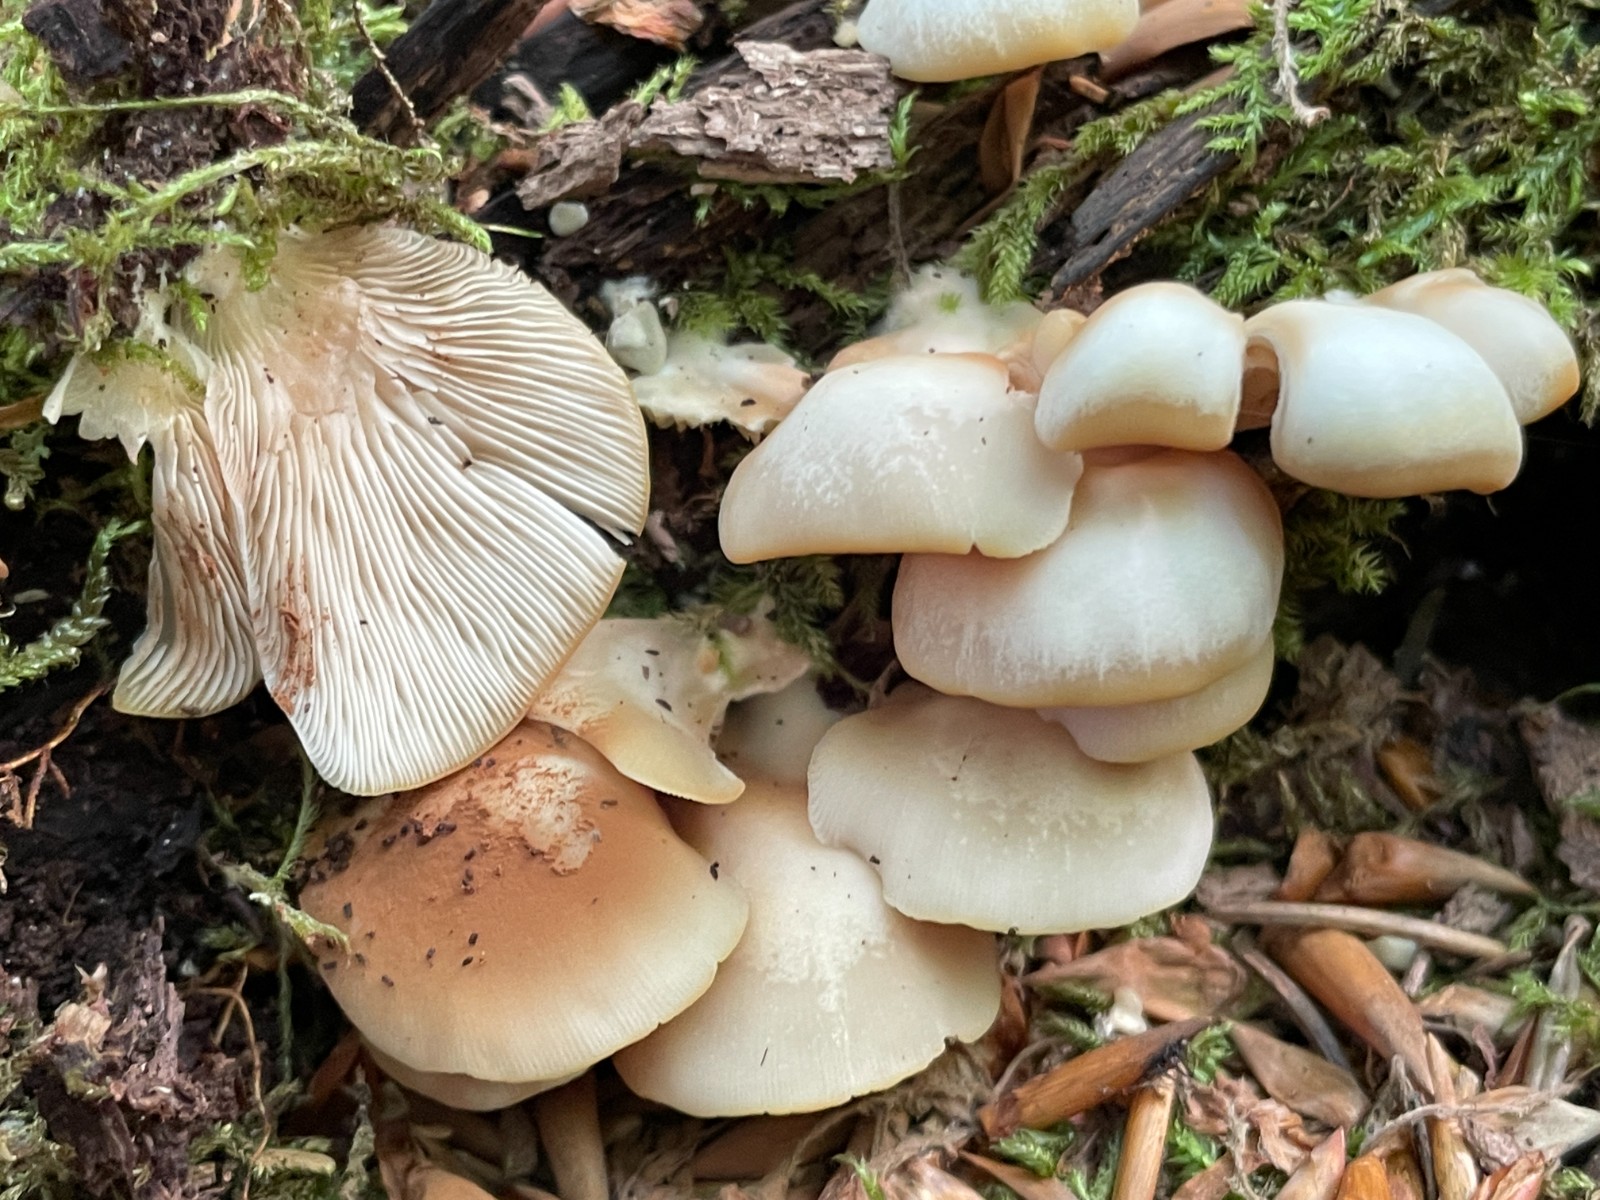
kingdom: Fungi
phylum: Basidiomycota
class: Agaricomycetes
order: Agaricales
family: Crepidotaceae
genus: Crepidotus
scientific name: Crepidotus mollis
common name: blød muslingesvamp
